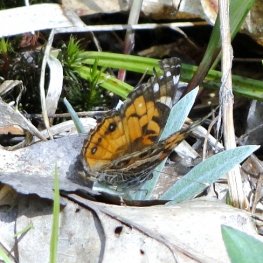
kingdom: Animalia
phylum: Arthropoda
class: Insecta
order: Lepidoptera
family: Nymphalidae
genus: Vanessa
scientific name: Vanessa virginiensis
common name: American Lady
